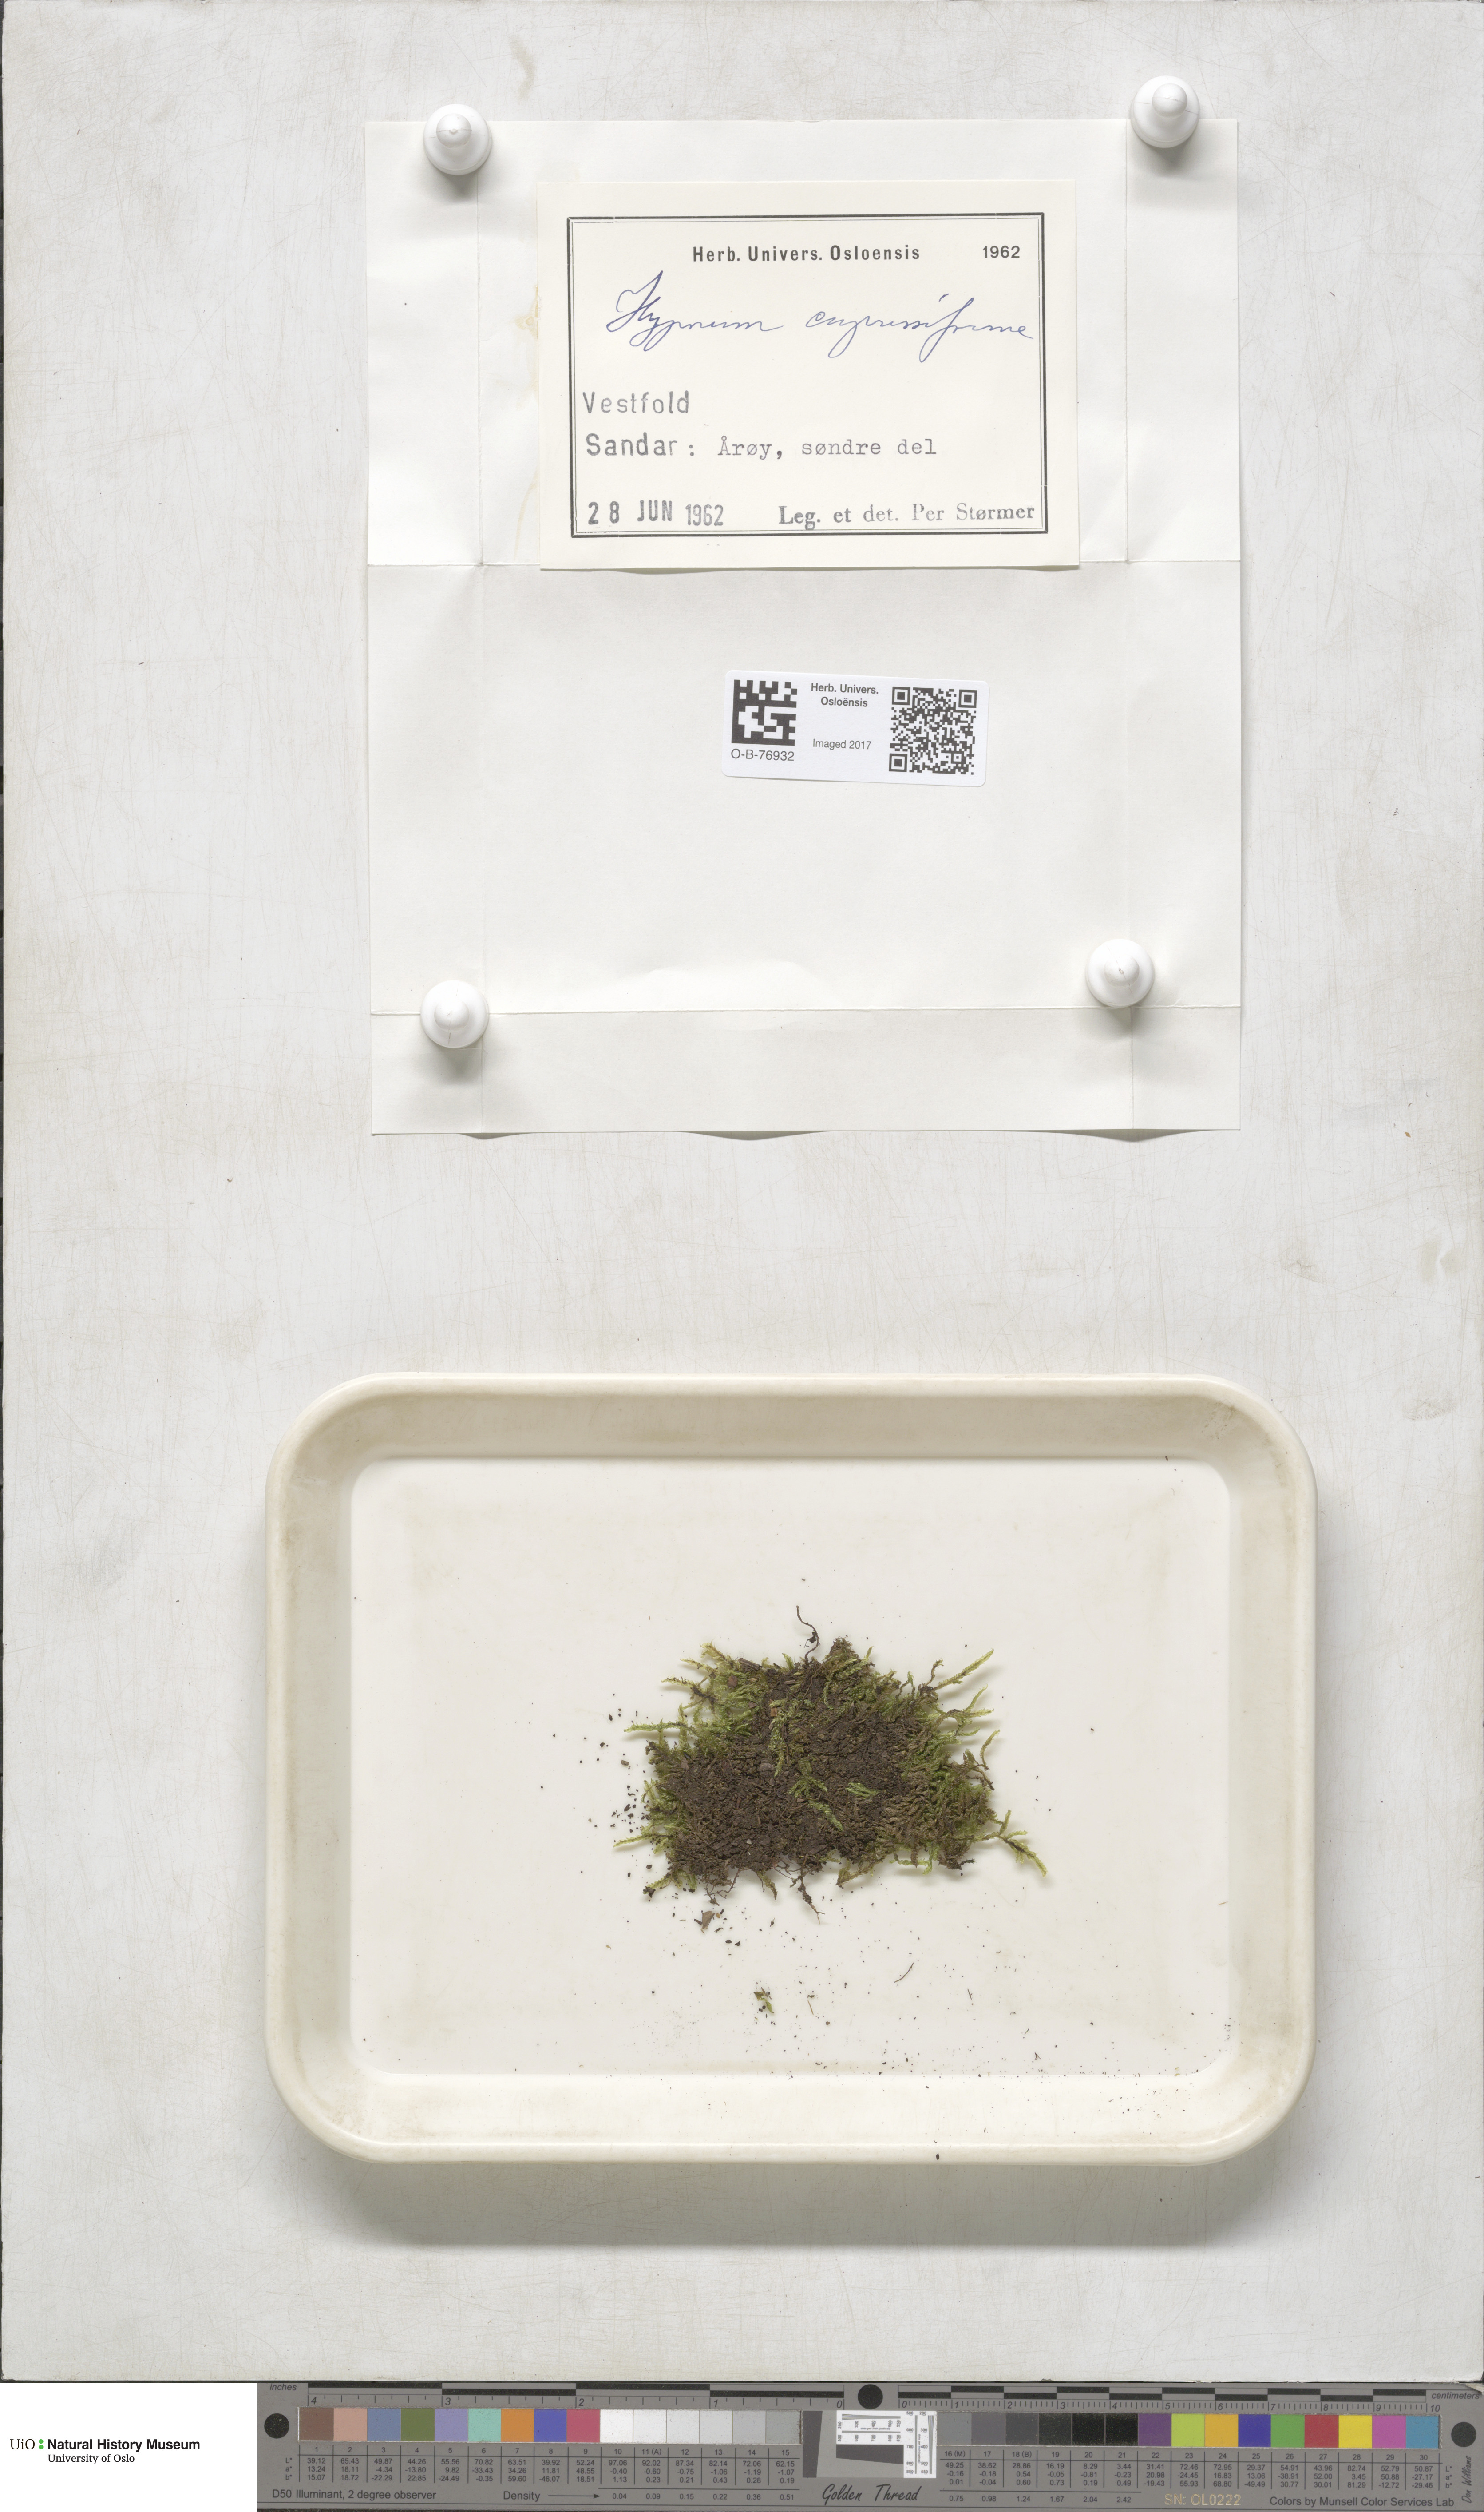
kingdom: Plantae
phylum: Bryophyta
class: Bryopsida
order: Hypnales
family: Hypnaceae
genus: Hypnum
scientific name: Hypnum cupressiforme
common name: Cypress-leaved plait-moss
